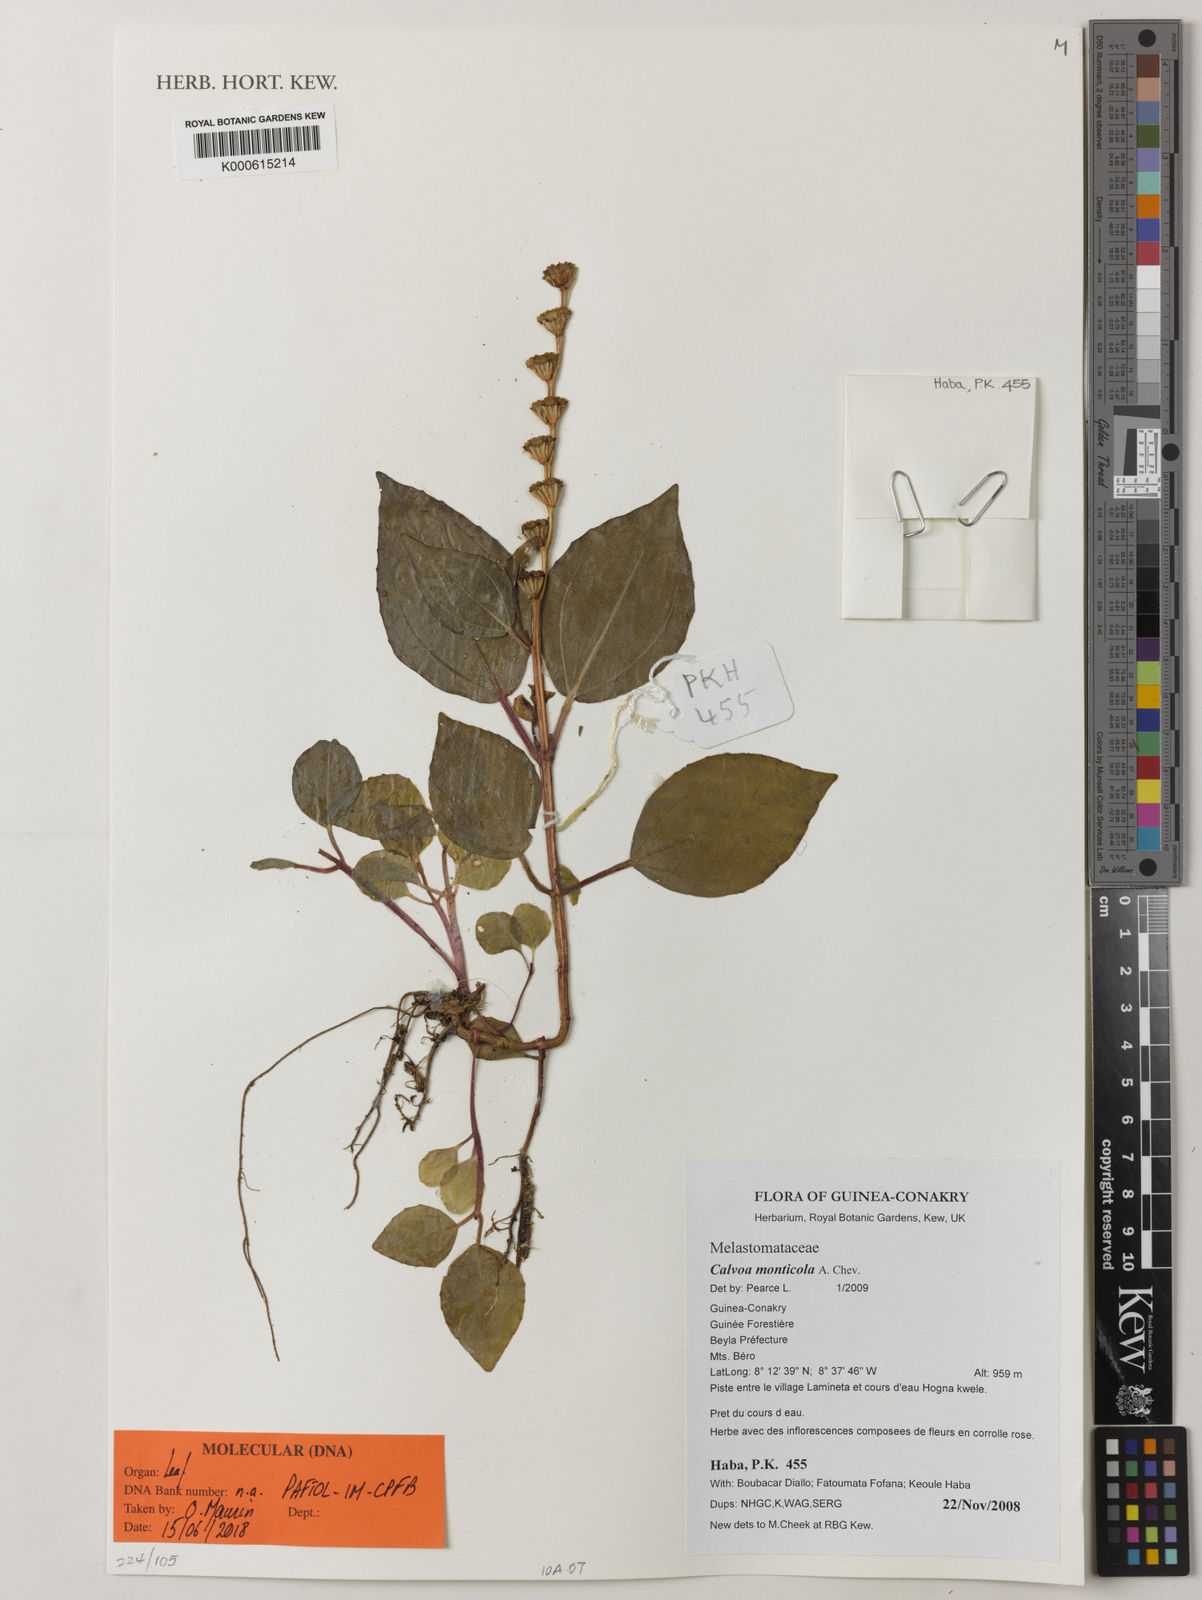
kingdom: Plantae
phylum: Tracheophyta
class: Magnoliopsida
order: Myrtales
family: Melastomataceae
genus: Calvoa
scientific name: Calvoa monticola
